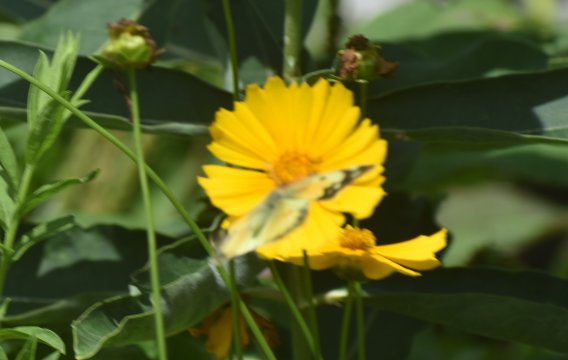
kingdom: Animalia
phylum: Arthropoda
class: Insecta
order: Lepidoptera
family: Pieridae
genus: Colias
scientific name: Colias eurytheme
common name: Orange Sulphur
